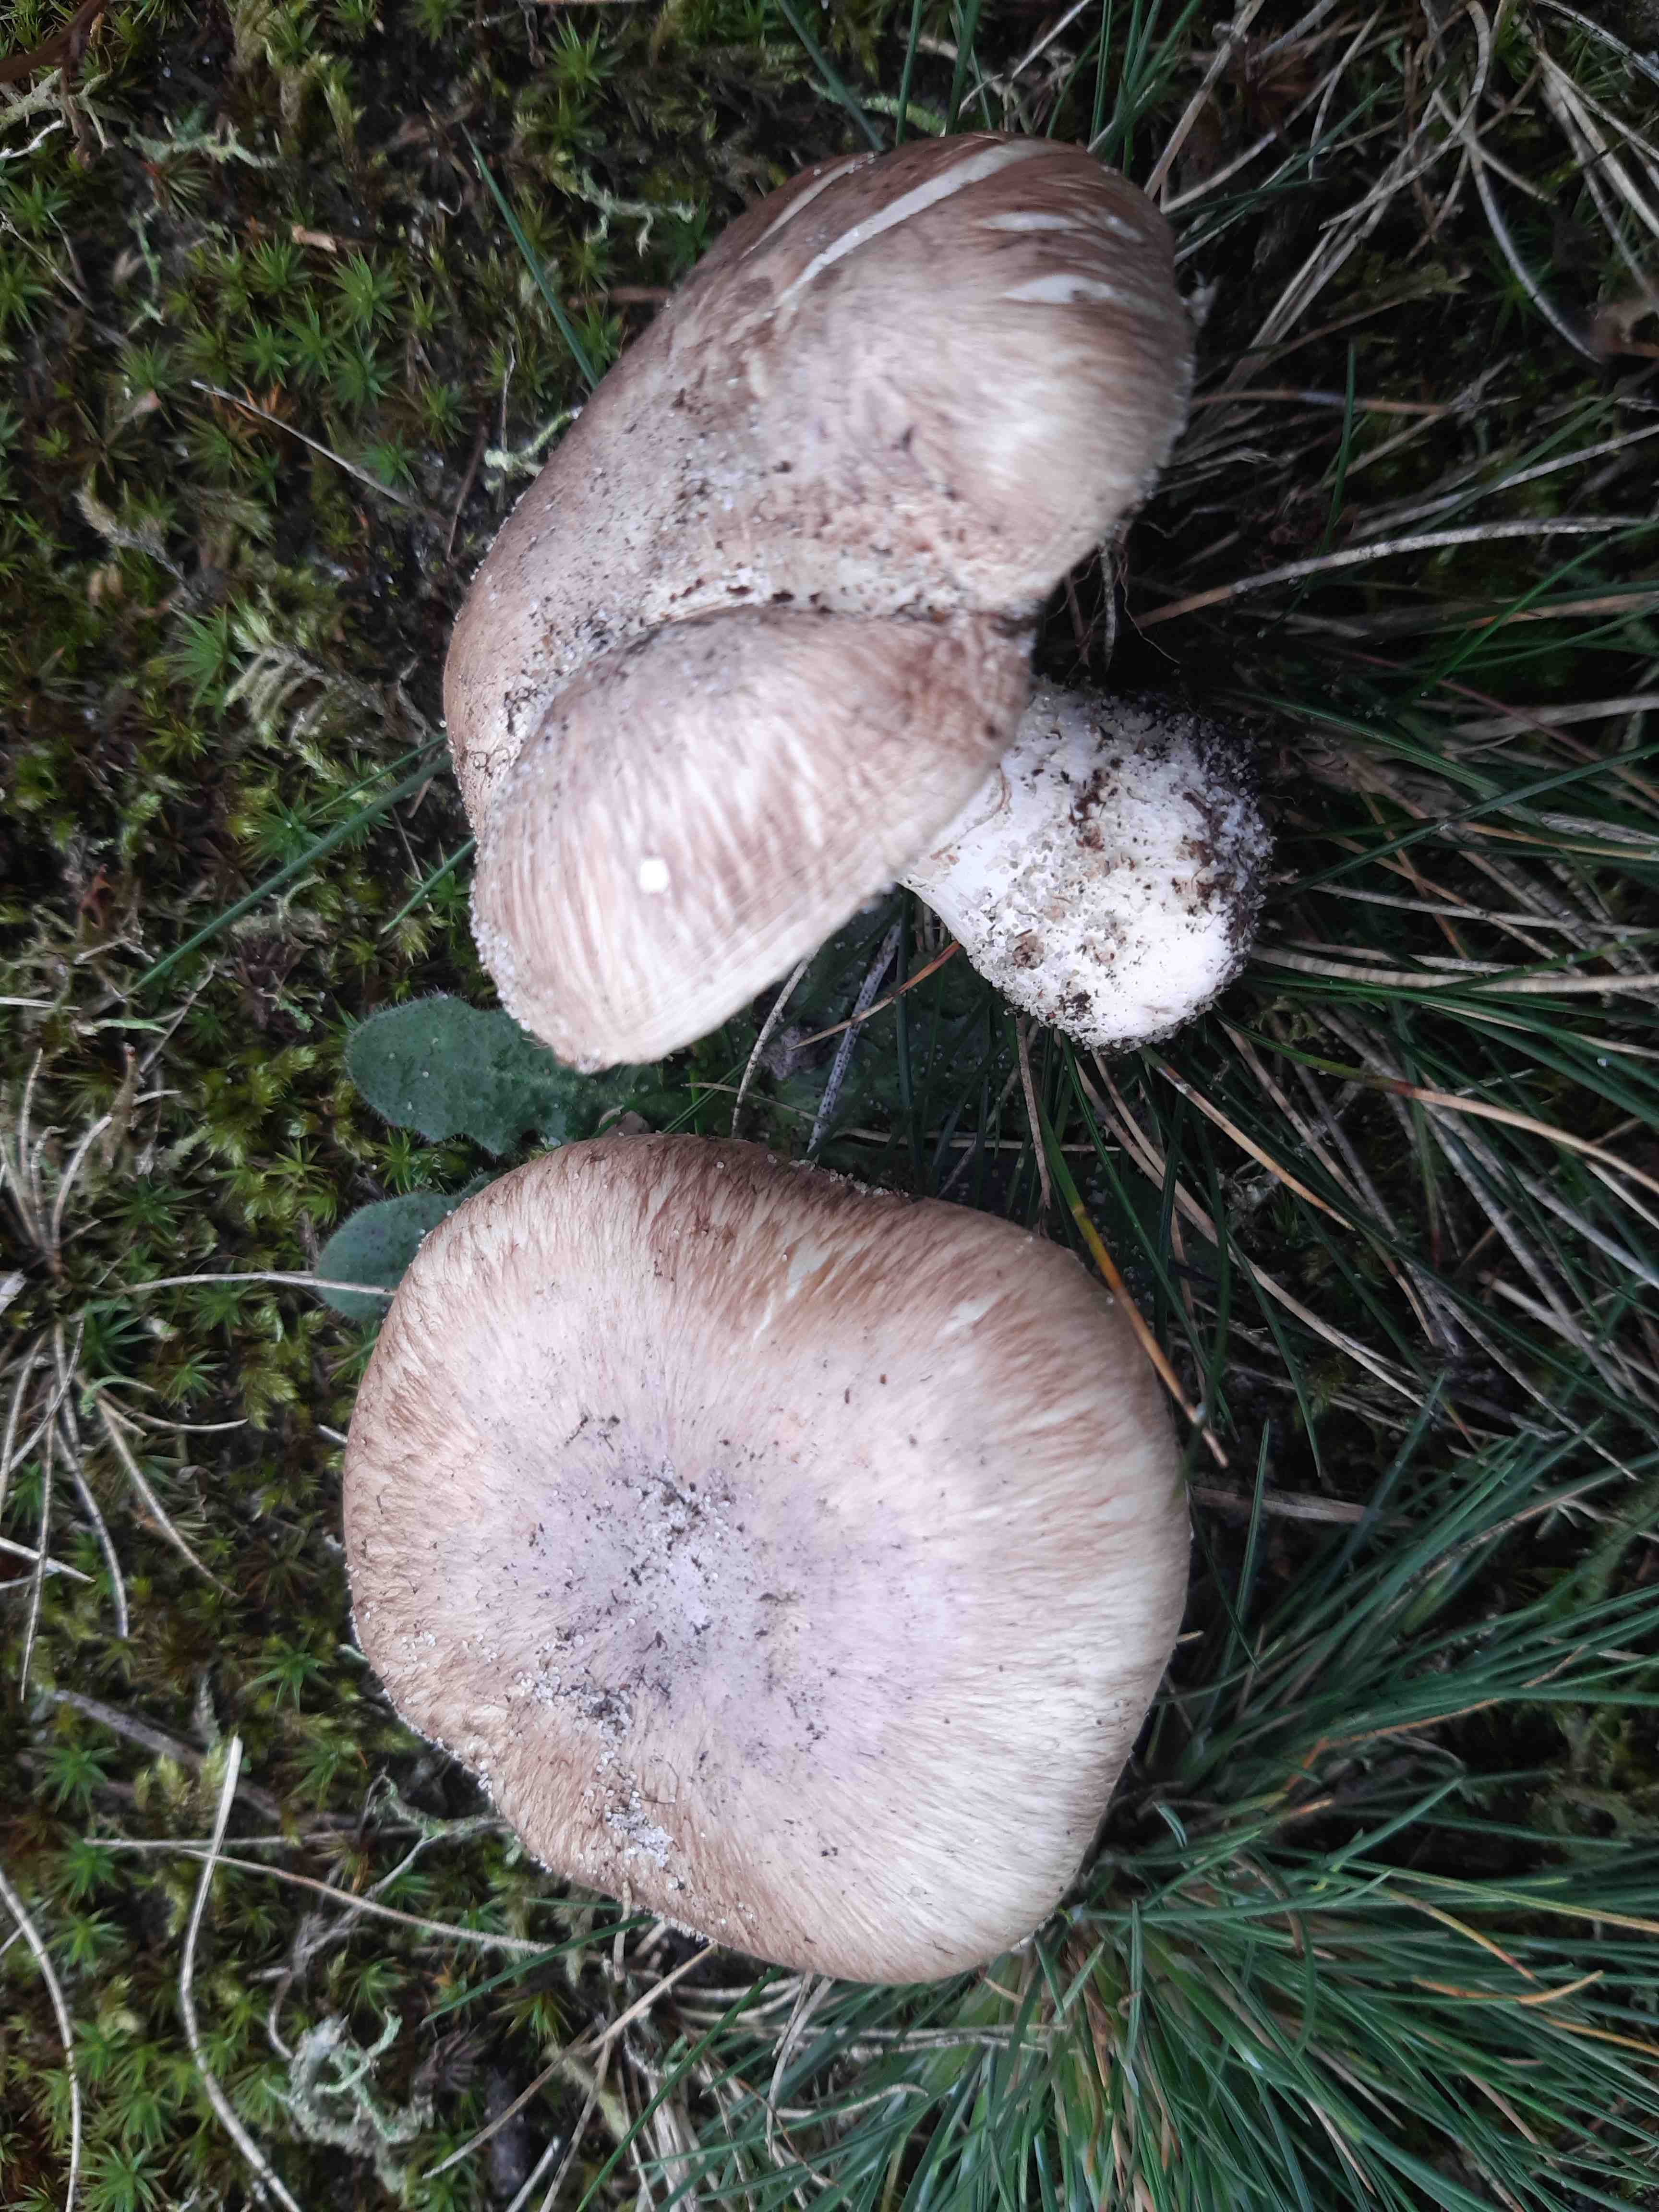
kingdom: Fungi
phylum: Basidiomycota
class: Agaricomycetes
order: Agaricales
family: Agaricaceae
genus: Agaricus
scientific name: Agaricus cupreobrunneus
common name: kobberbrun champignon
